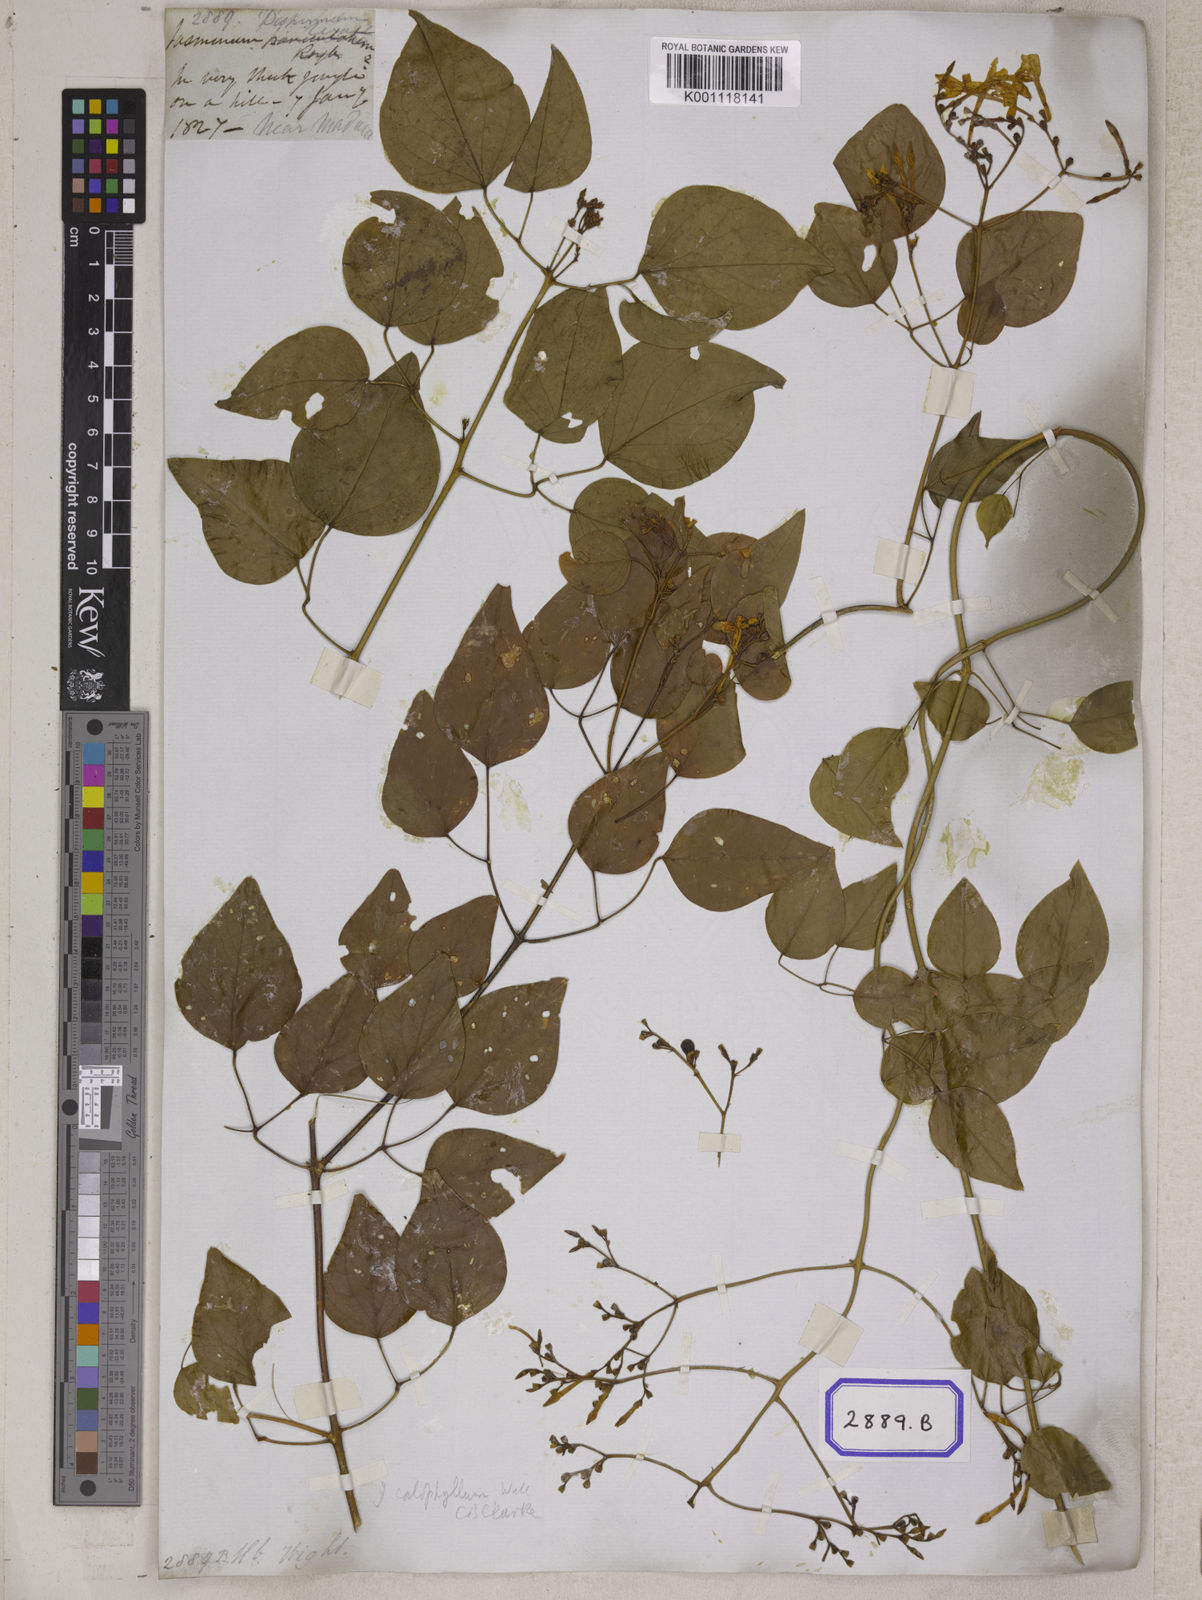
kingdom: Plantae
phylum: Tracheophyta
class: Magnoliopsida
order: Lamiales
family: Oleaceae
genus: Jasminum
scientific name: Jasminum
